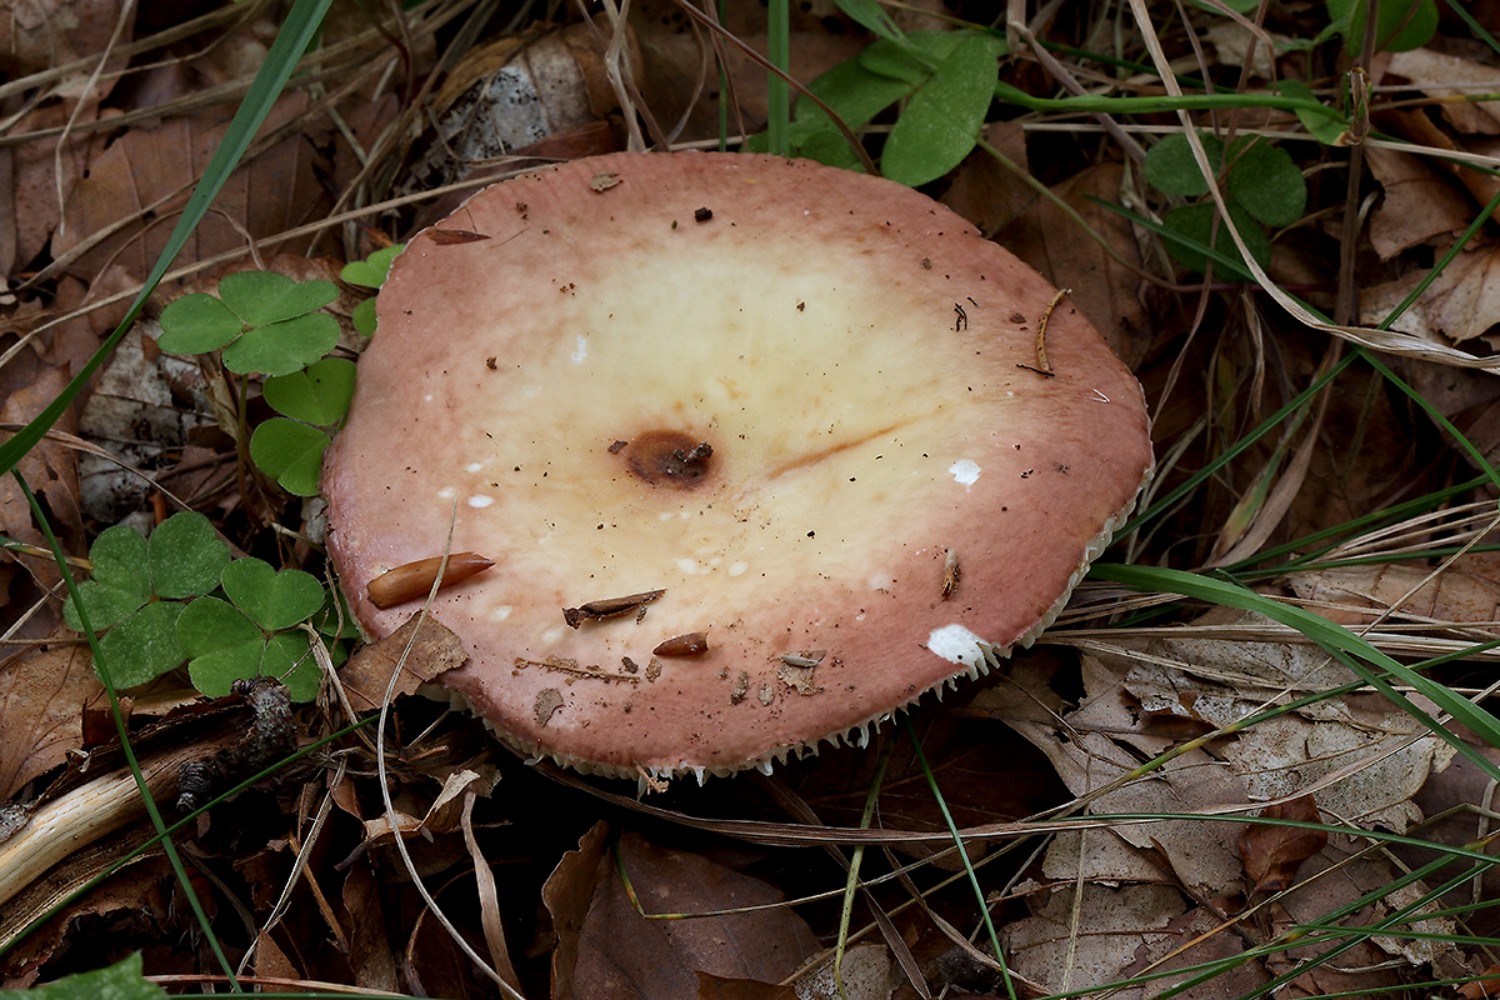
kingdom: Fungi
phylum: Basidiomycota
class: Agaricomycetes
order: Russulales
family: Russulaceae
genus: Russula
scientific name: Russula curtipes
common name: kortstokket skørhat
